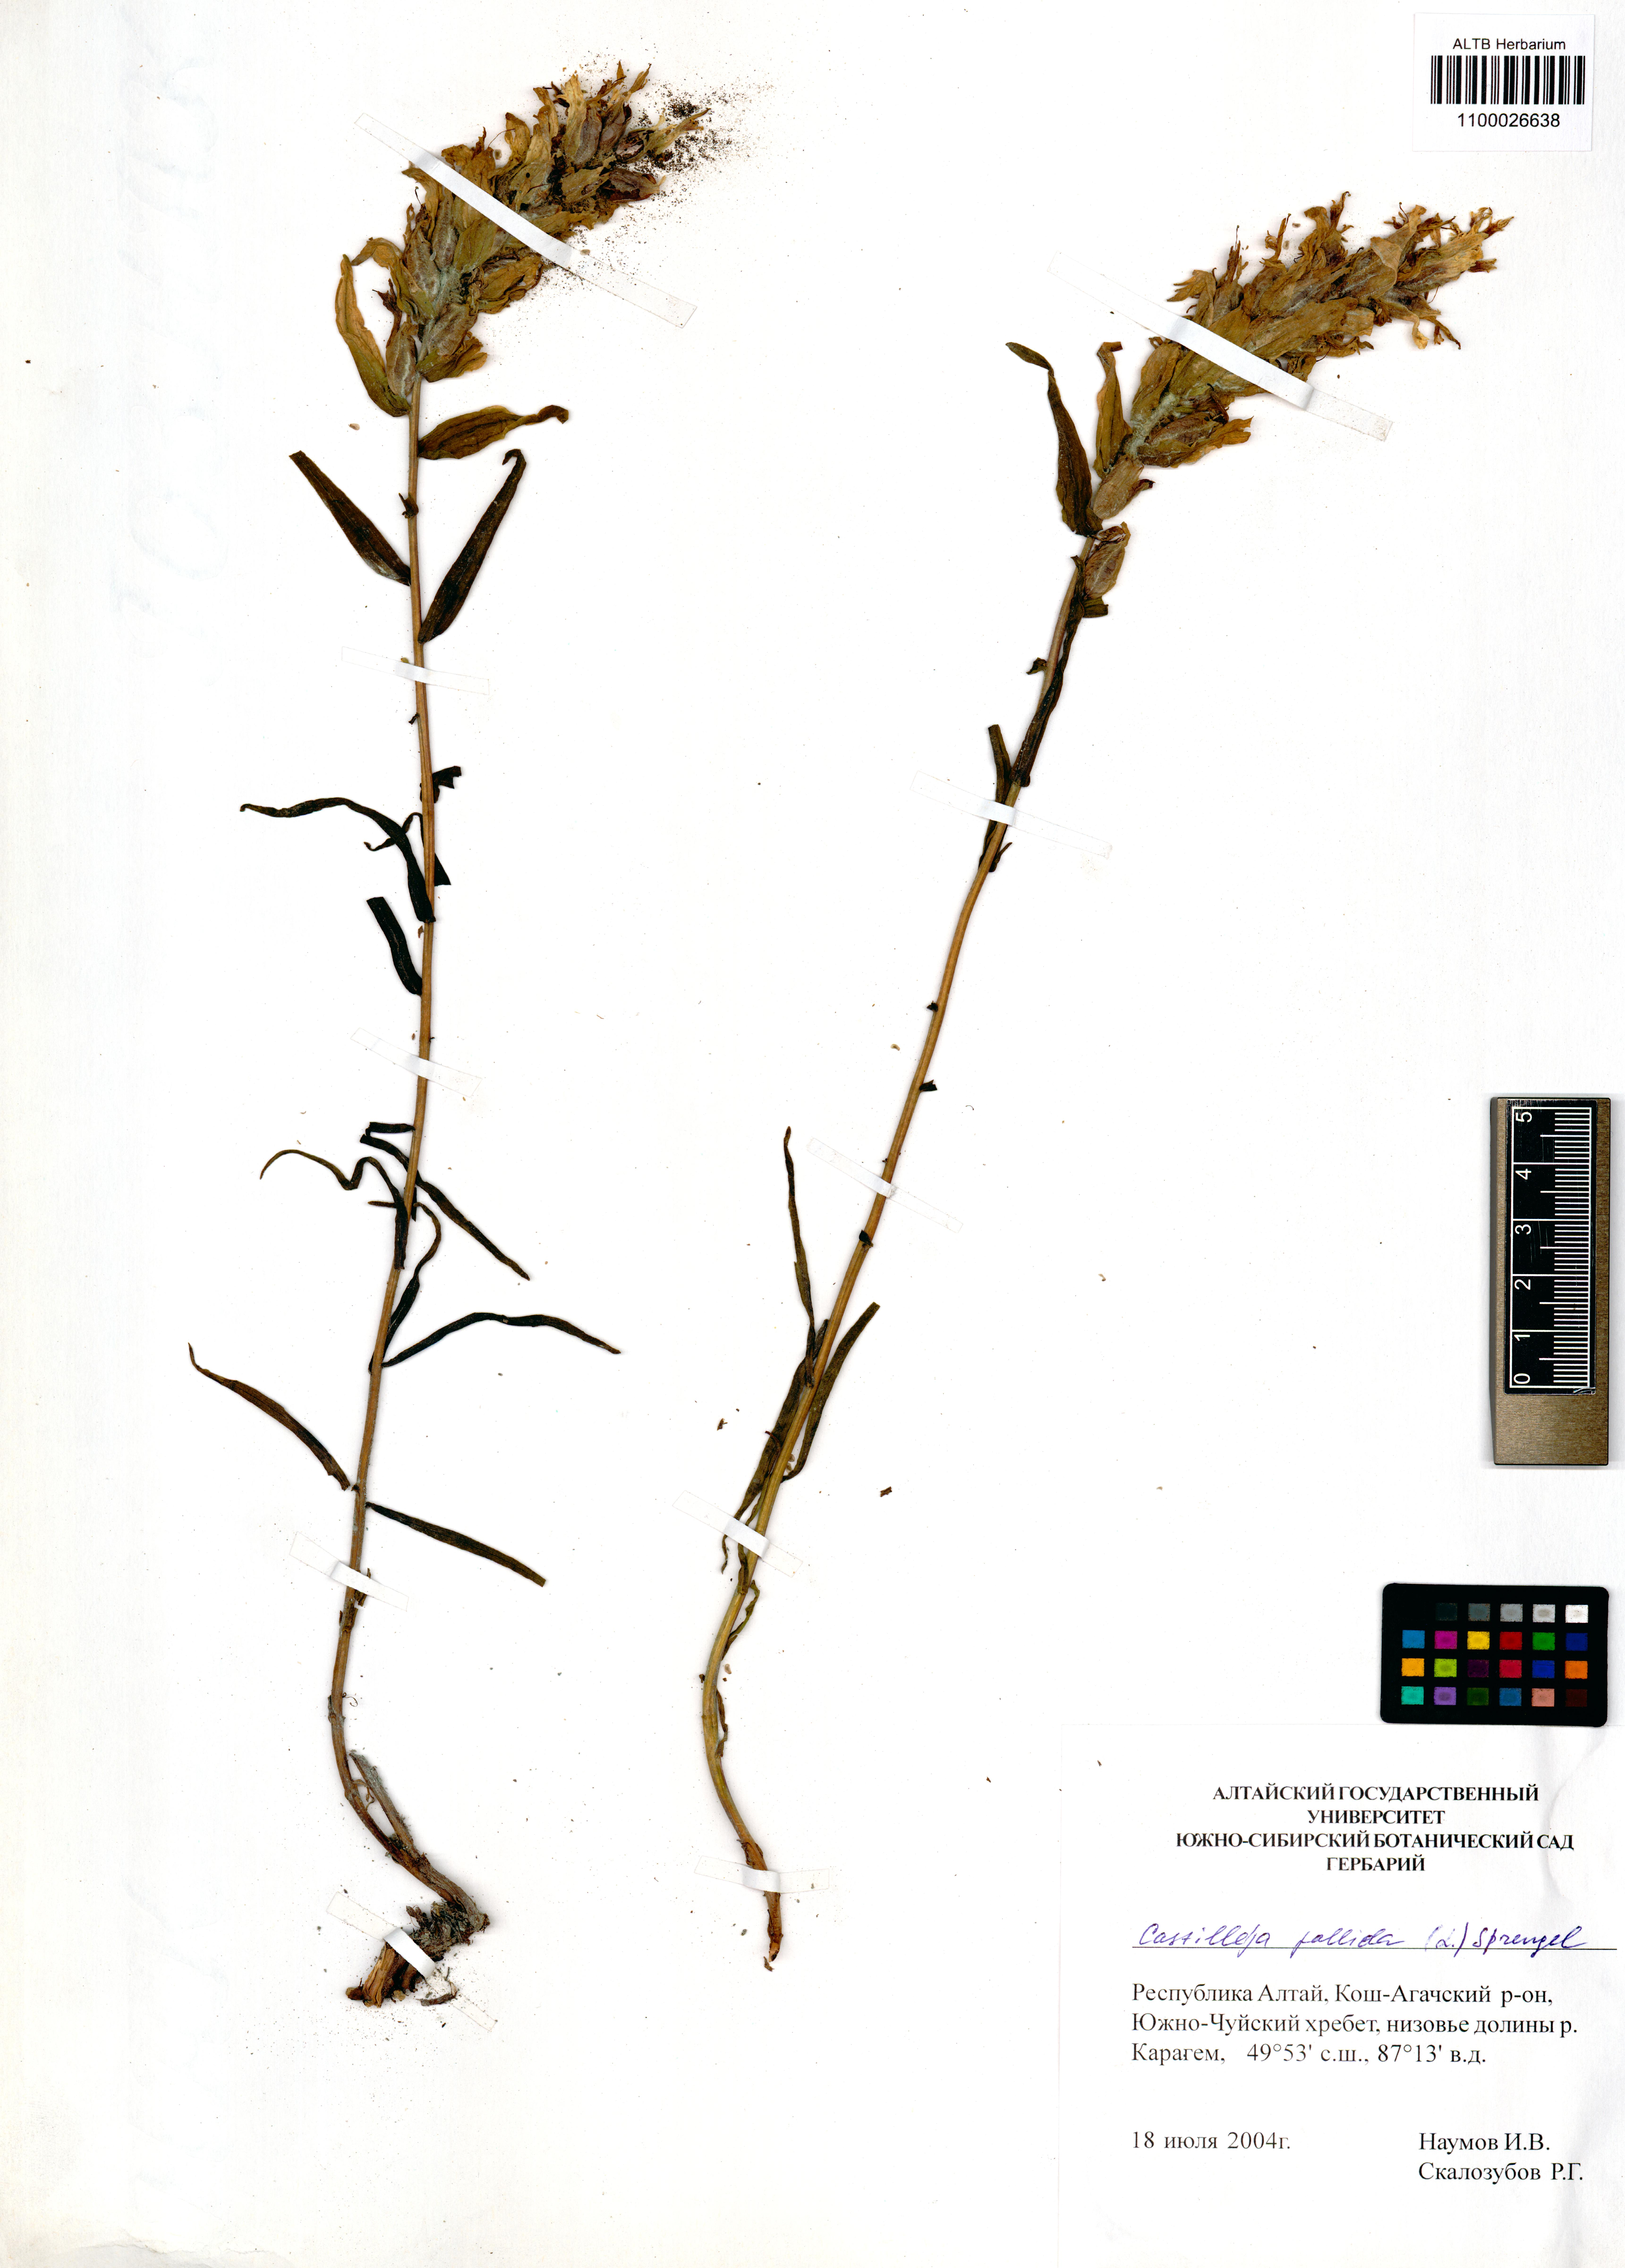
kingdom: Plantae
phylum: Tracheophyta
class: Magnoliopsida
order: Lamiales
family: Orobanchaceae
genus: Castilleja
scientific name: Castilleja pallida
